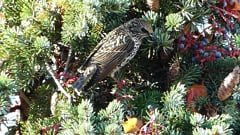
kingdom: Animalia
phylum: Chordata
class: Aves
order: Passeriformes
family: Sturnidae
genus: Sturnus
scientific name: Sturnus vulgaris
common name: Common starling
